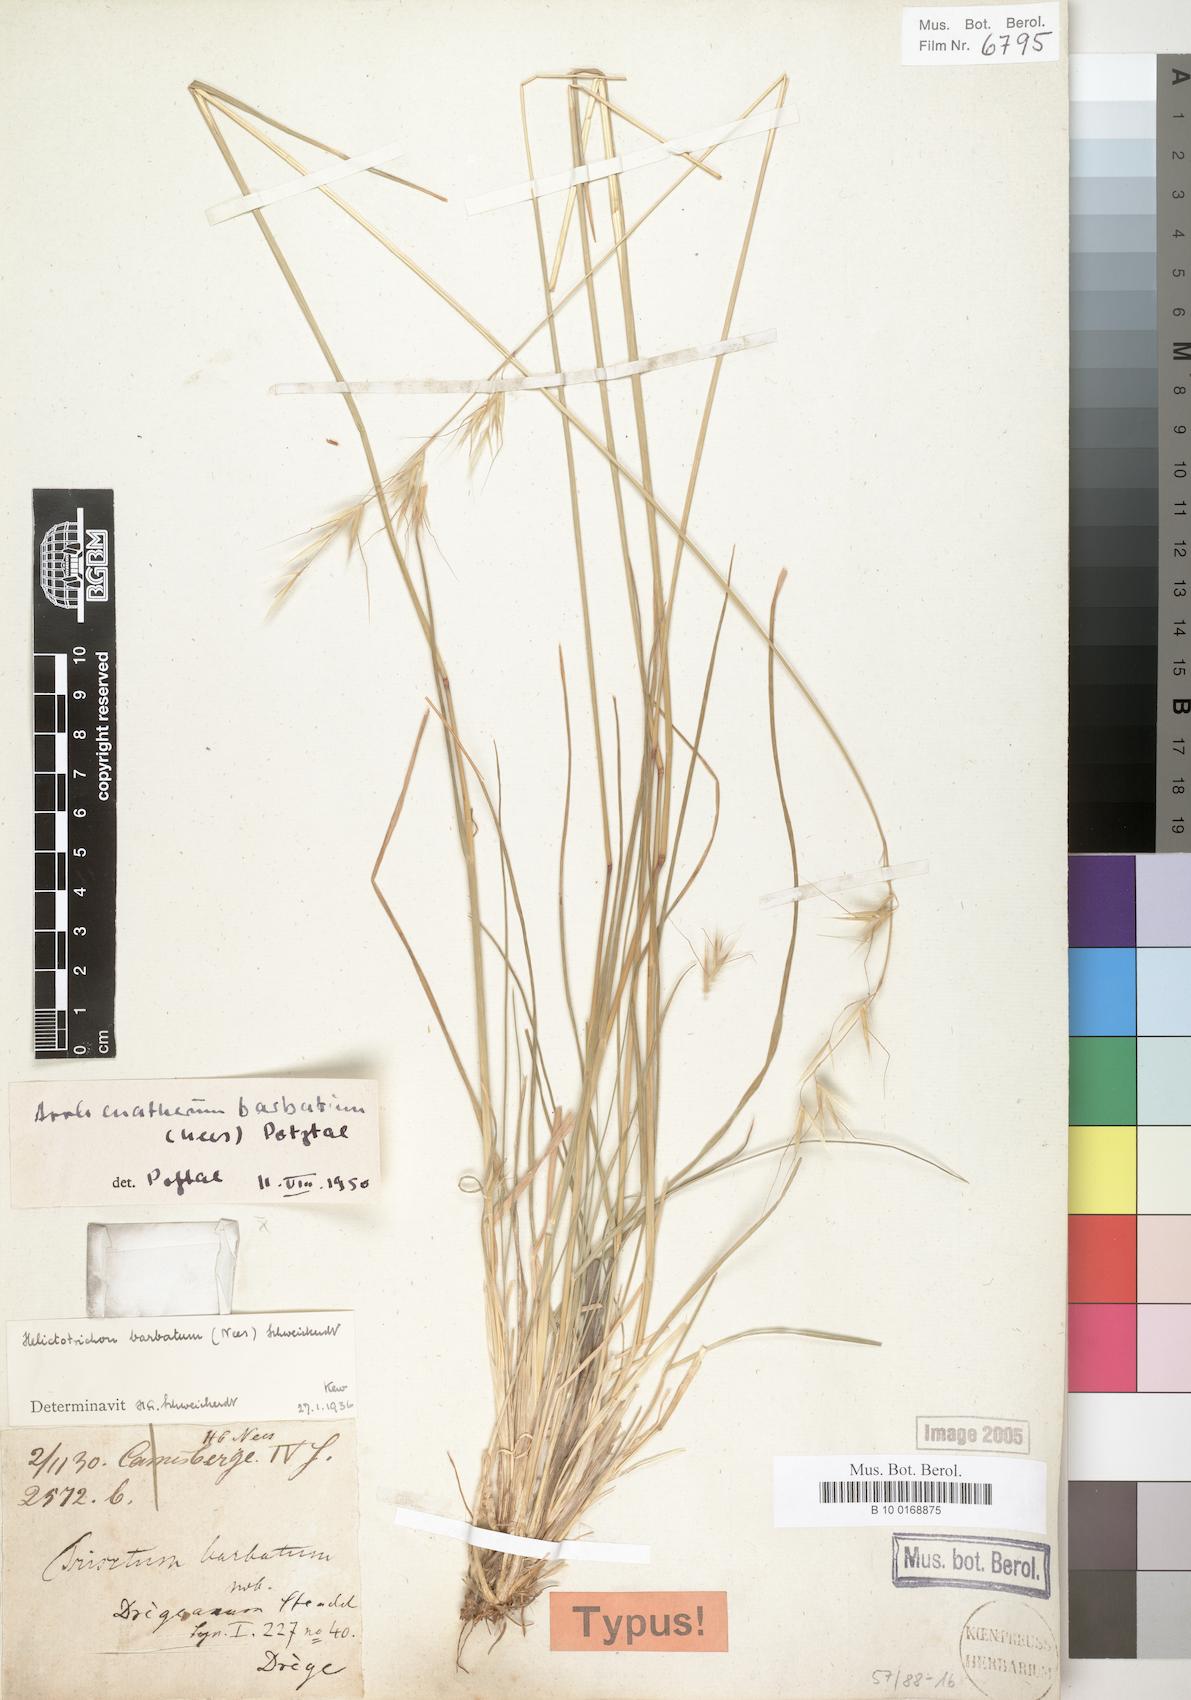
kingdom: Plantae
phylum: Tracheophyta
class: Liliopsida
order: Poales
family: Poaceae
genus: Trisetopsis
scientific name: Trisetopsis barbata
